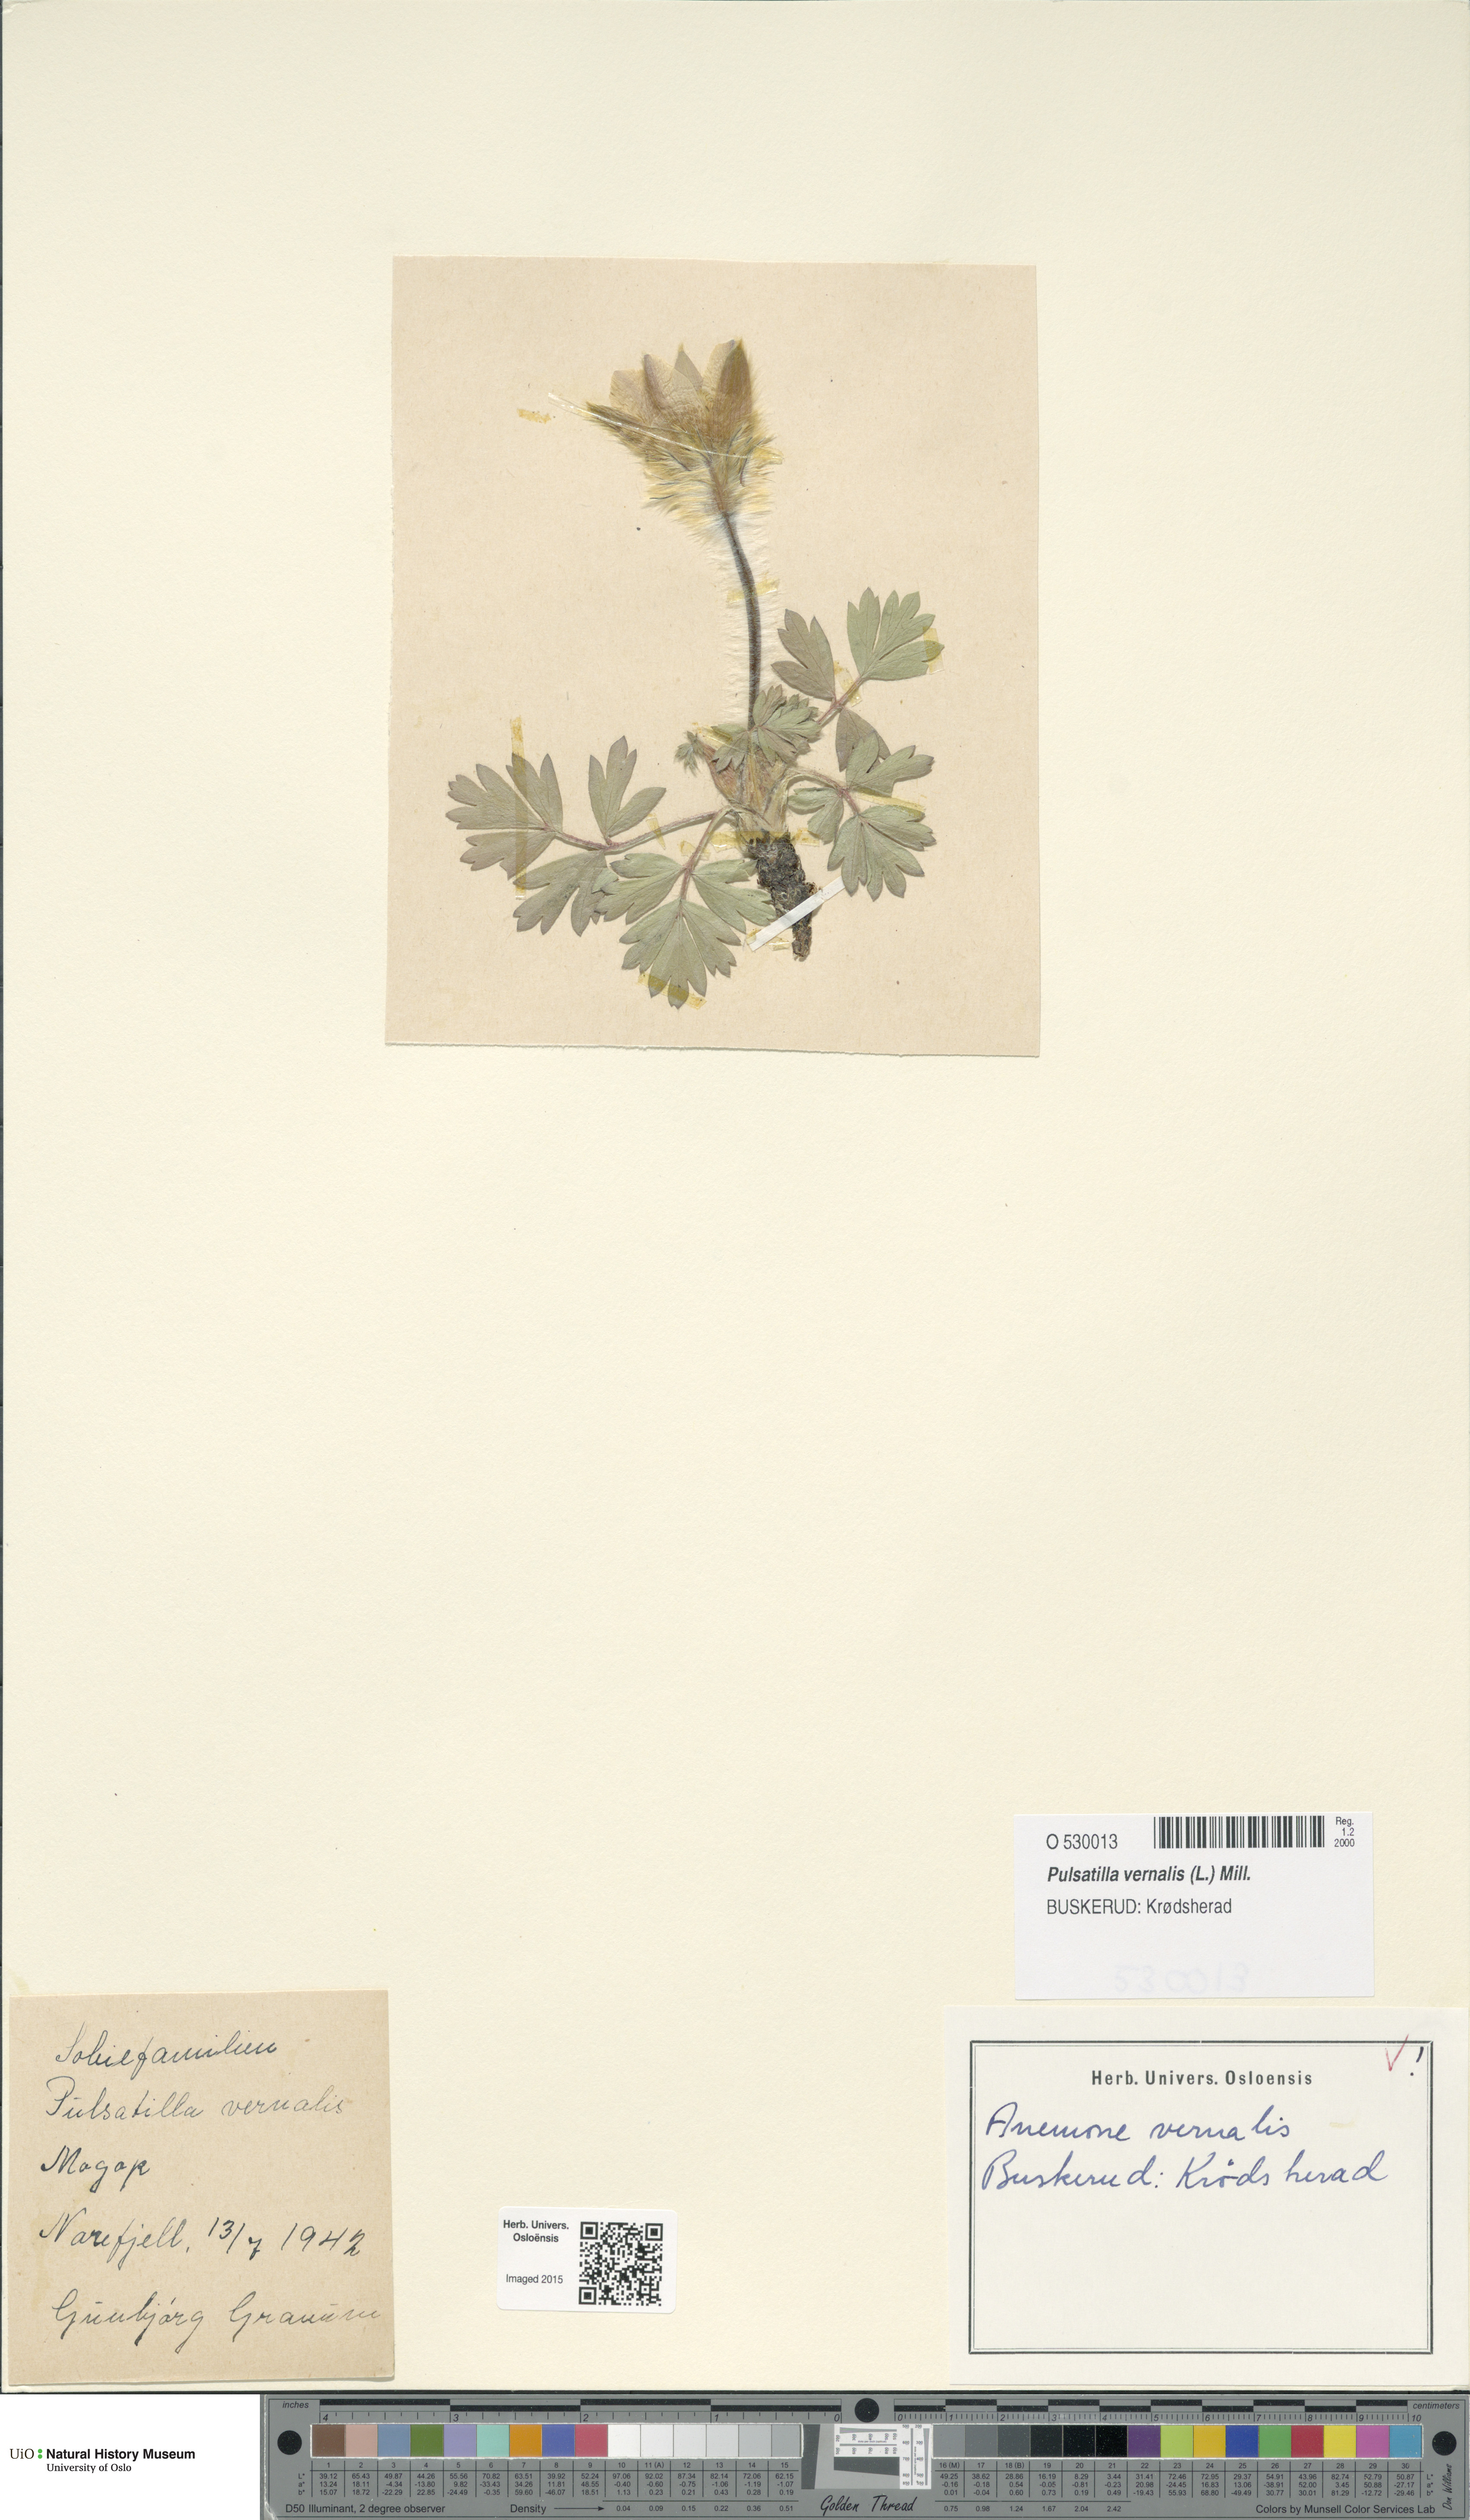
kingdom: Plantae
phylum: Tracheophyta
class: Magnoliopsida
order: Ranunculales
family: Ranunculaceae
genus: Pulsatilla
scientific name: Pulsatilla vernalis
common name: Spring pasque flower
